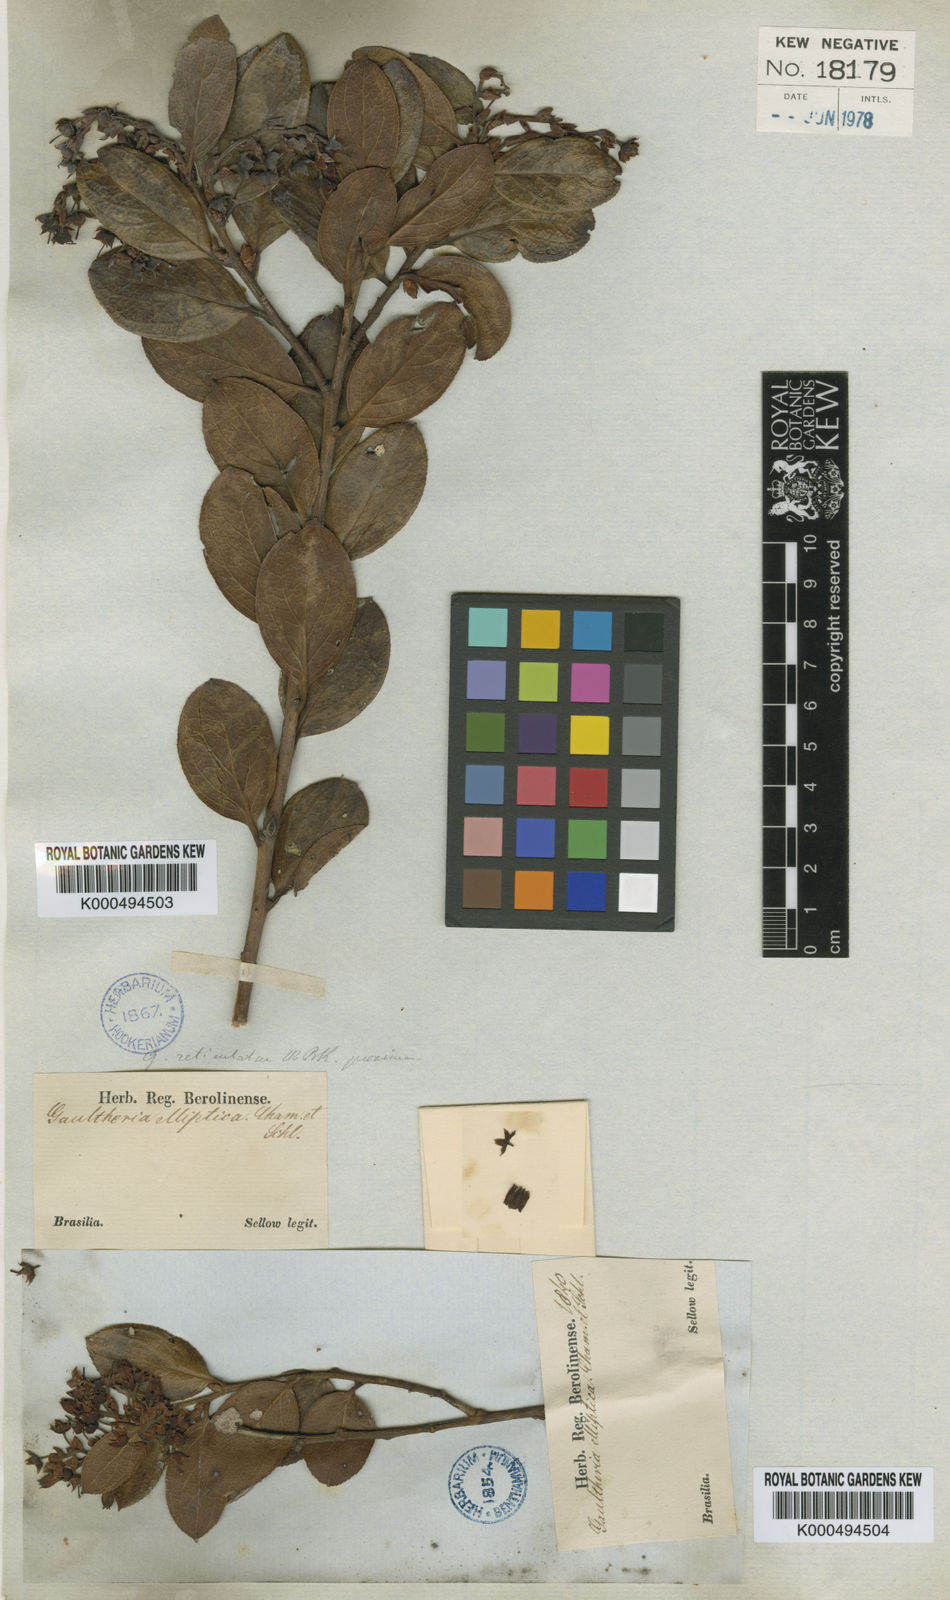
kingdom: Plantae
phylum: Tracheophyta
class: Magnoliopsida
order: Ericales
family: Ericaceae
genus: Gaultheria
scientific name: Gaultheria
